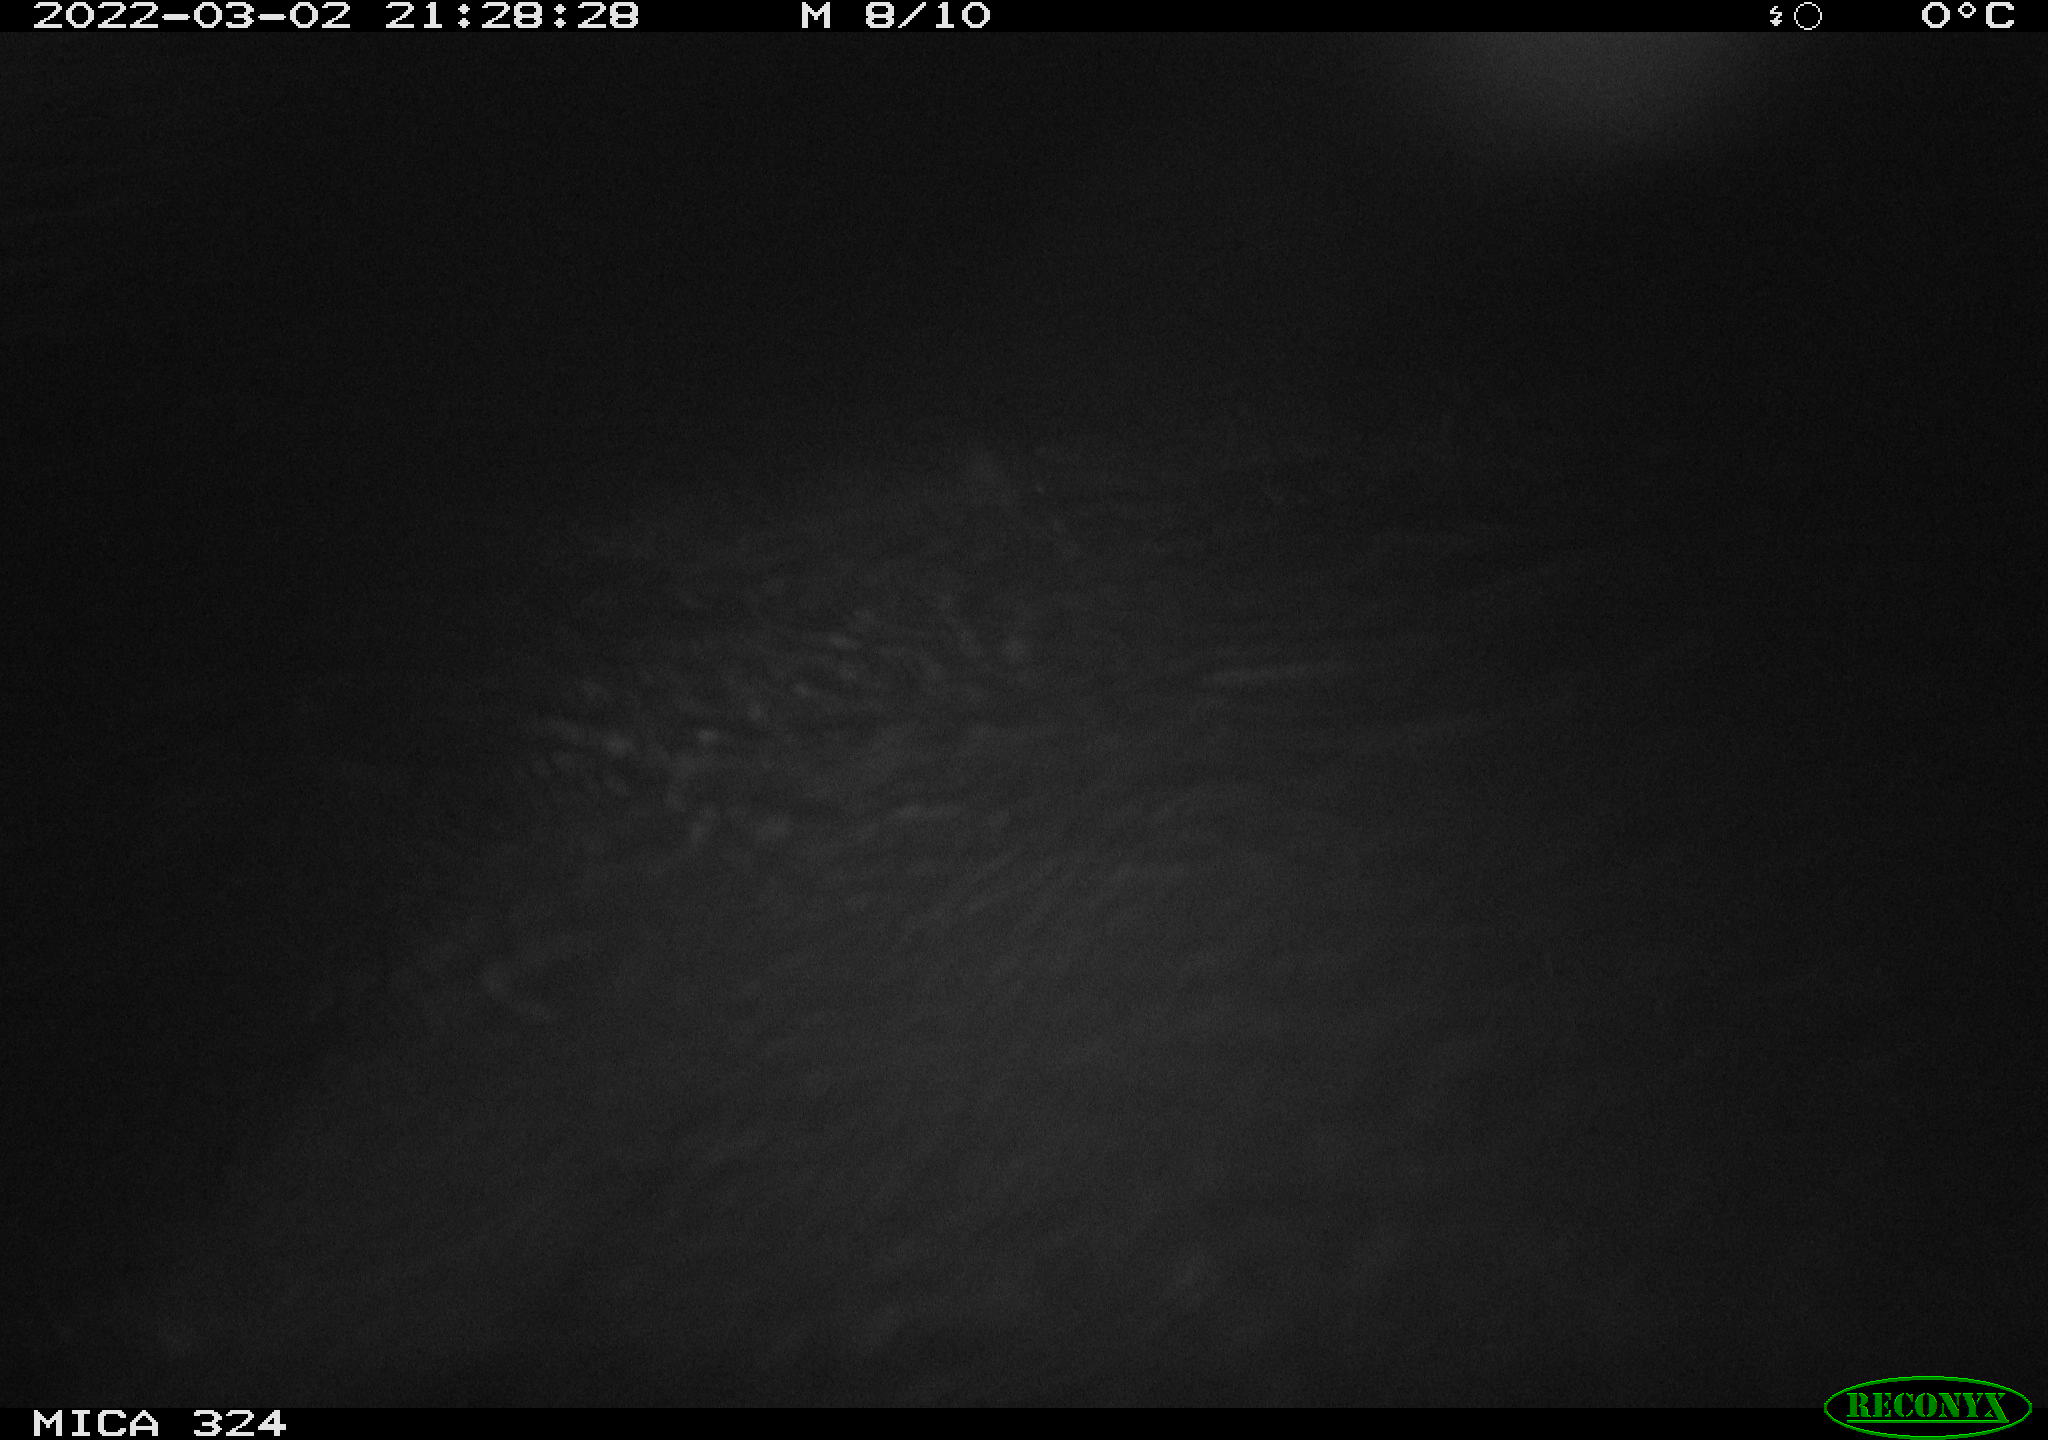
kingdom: Animalia
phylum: Chordata
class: Mammalia
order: Rodentia
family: Cricetidae
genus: Ondatra
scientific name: Ondatra zibethicus
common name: Muskrat
